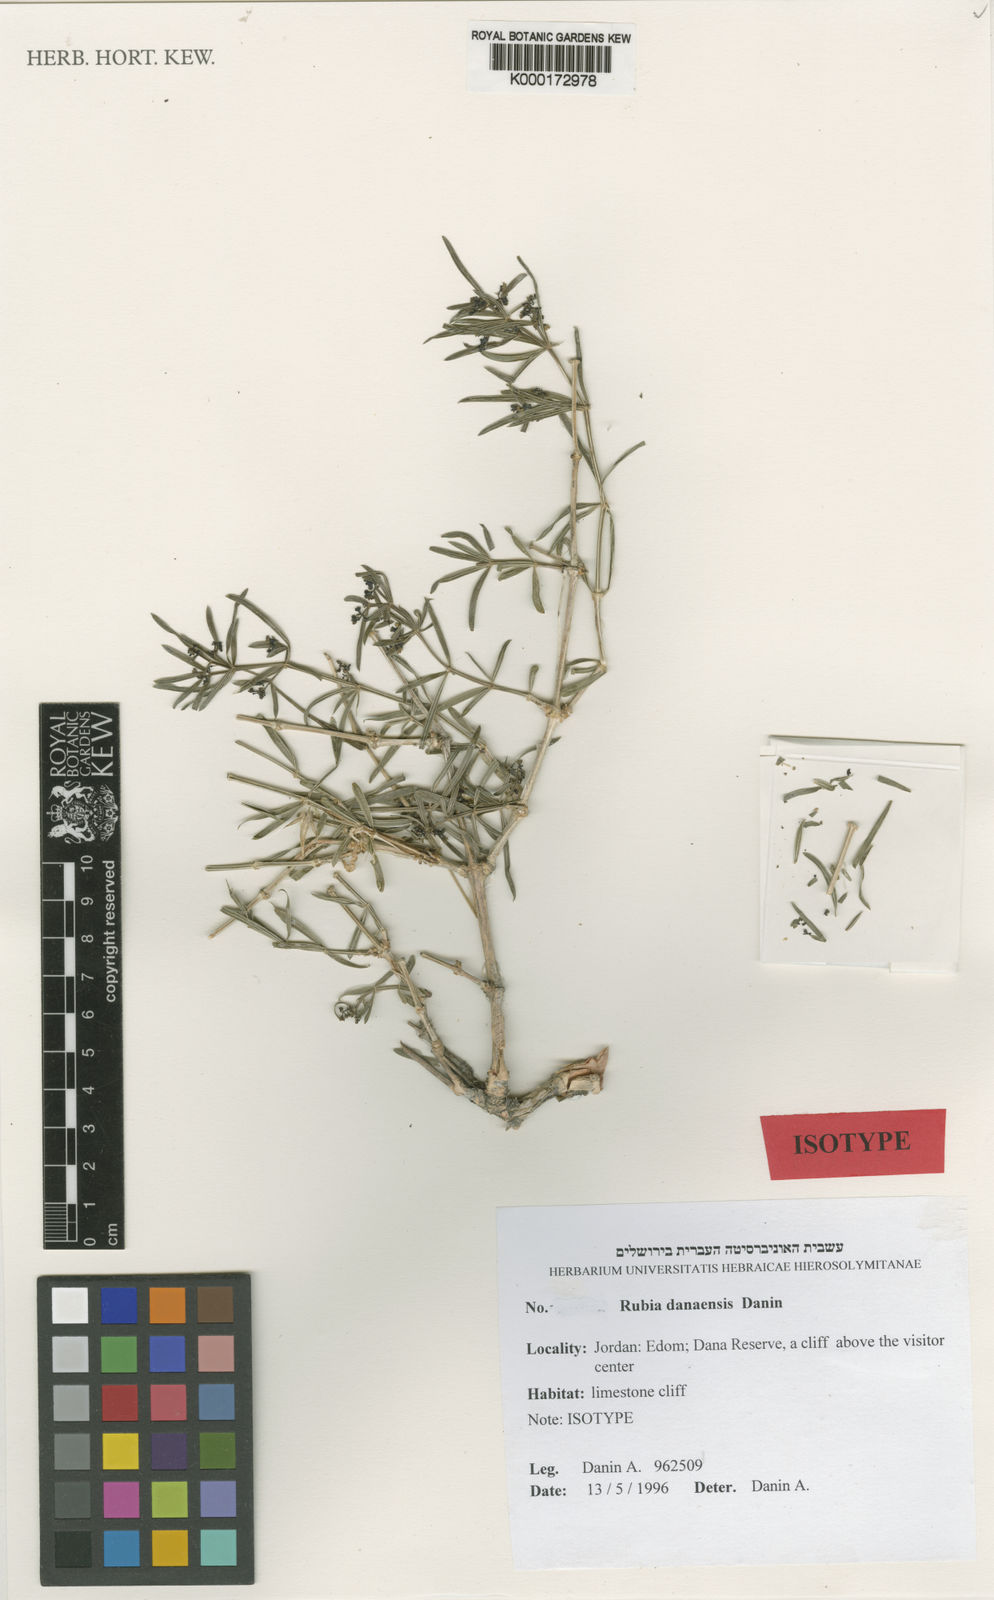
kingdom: Plantae
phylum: Tracheophyta
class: Magnoliopsida
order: Gentianales
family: Rubiaceae
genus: Rubia
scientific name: Rubia danaensis
